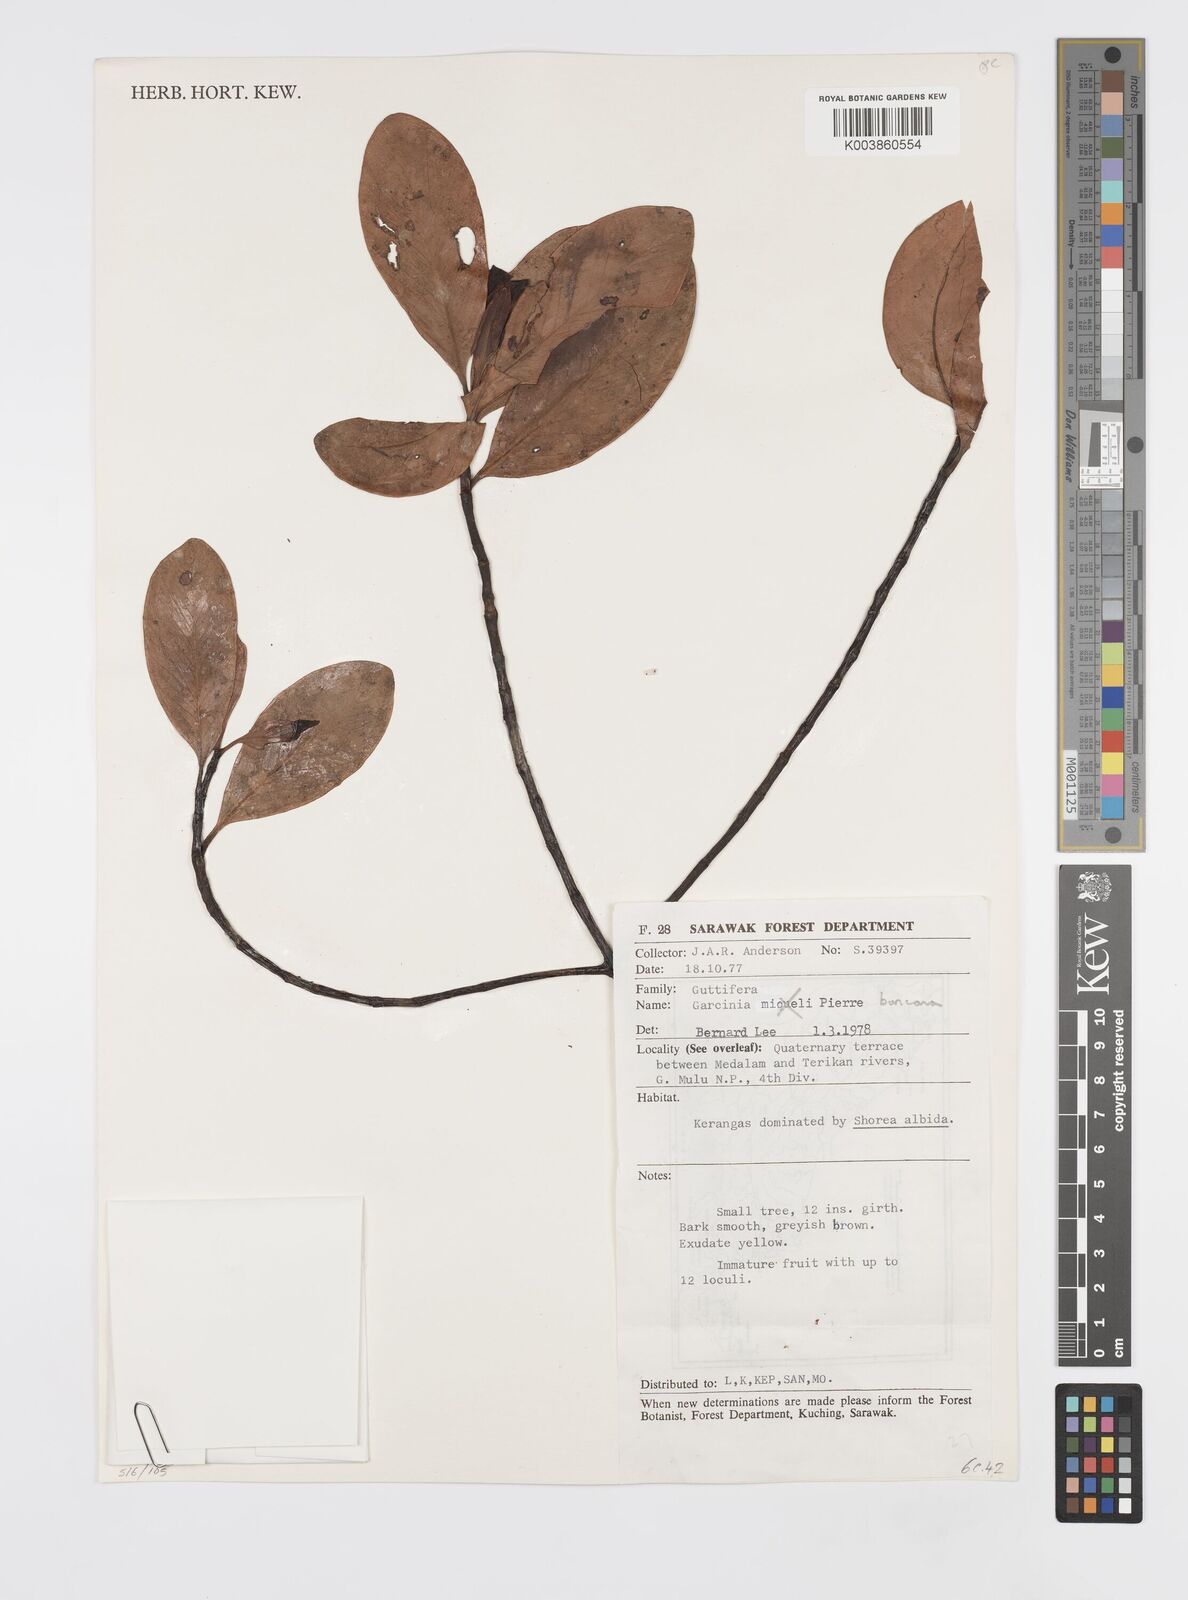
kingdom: Plantae
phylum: Tracheophyta
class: Magnoliopsida
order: Malpighiales
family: Clusiaceae
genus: Garcinia
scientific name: Garcinia bancana
